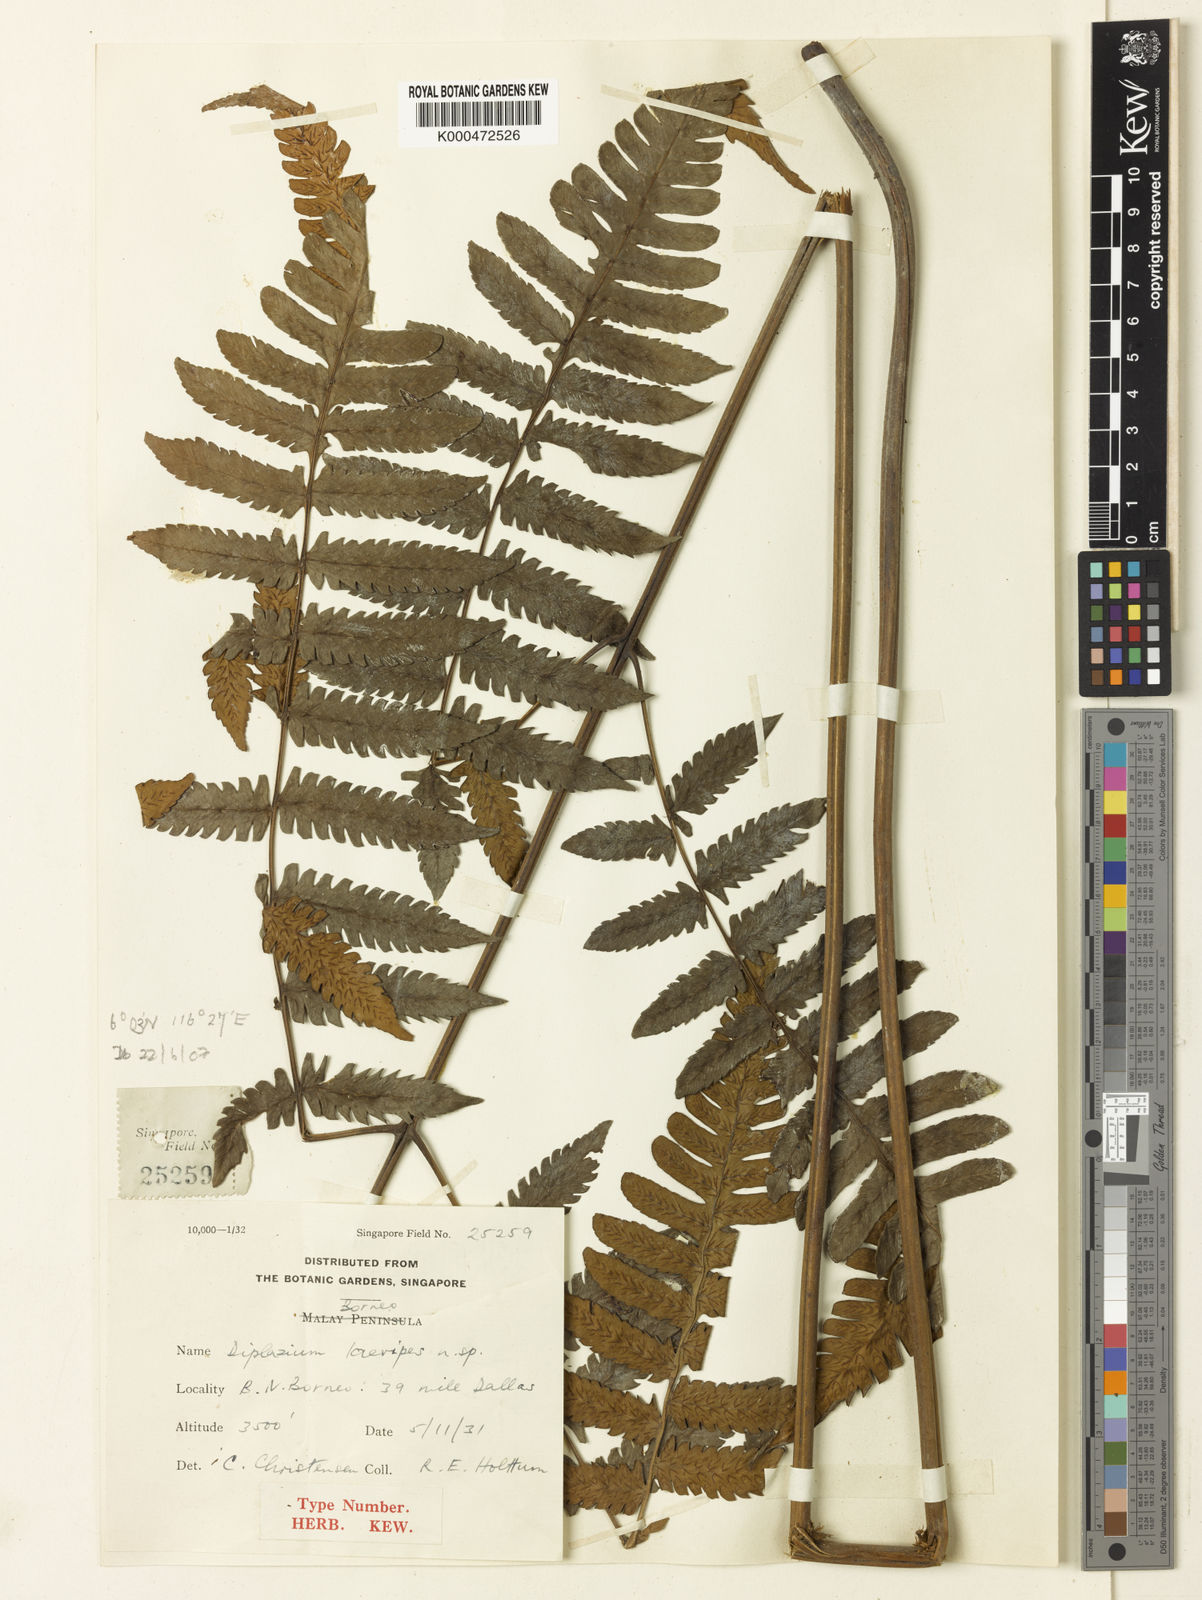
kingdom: Plantae
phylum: Tracheophyta
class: Polypodiopsida
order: Polypodiales
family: Athyriaceae
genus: Diplazium
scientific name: Diplazium laevipes
